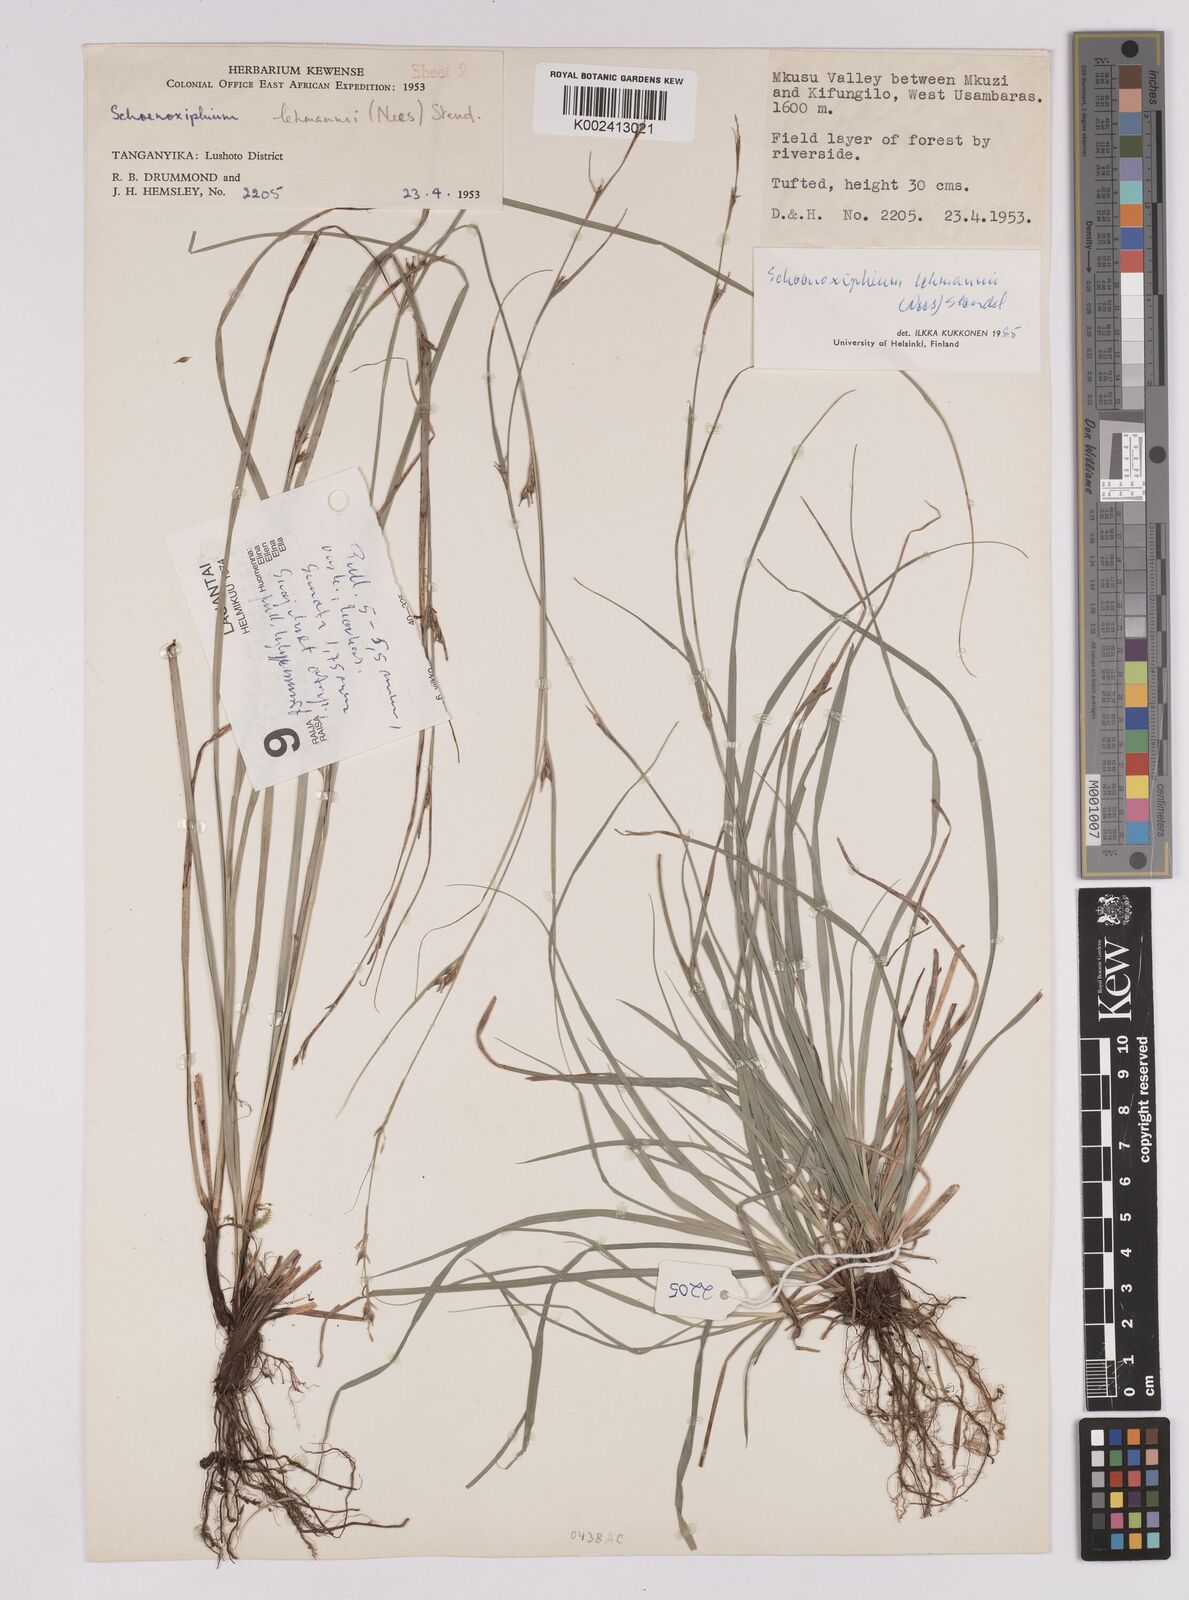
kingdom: Plantae
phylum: Tracheophyta
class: Liliopsida
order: Poales
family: Cyperaceae
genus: Carex
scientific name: Carex uhligii
